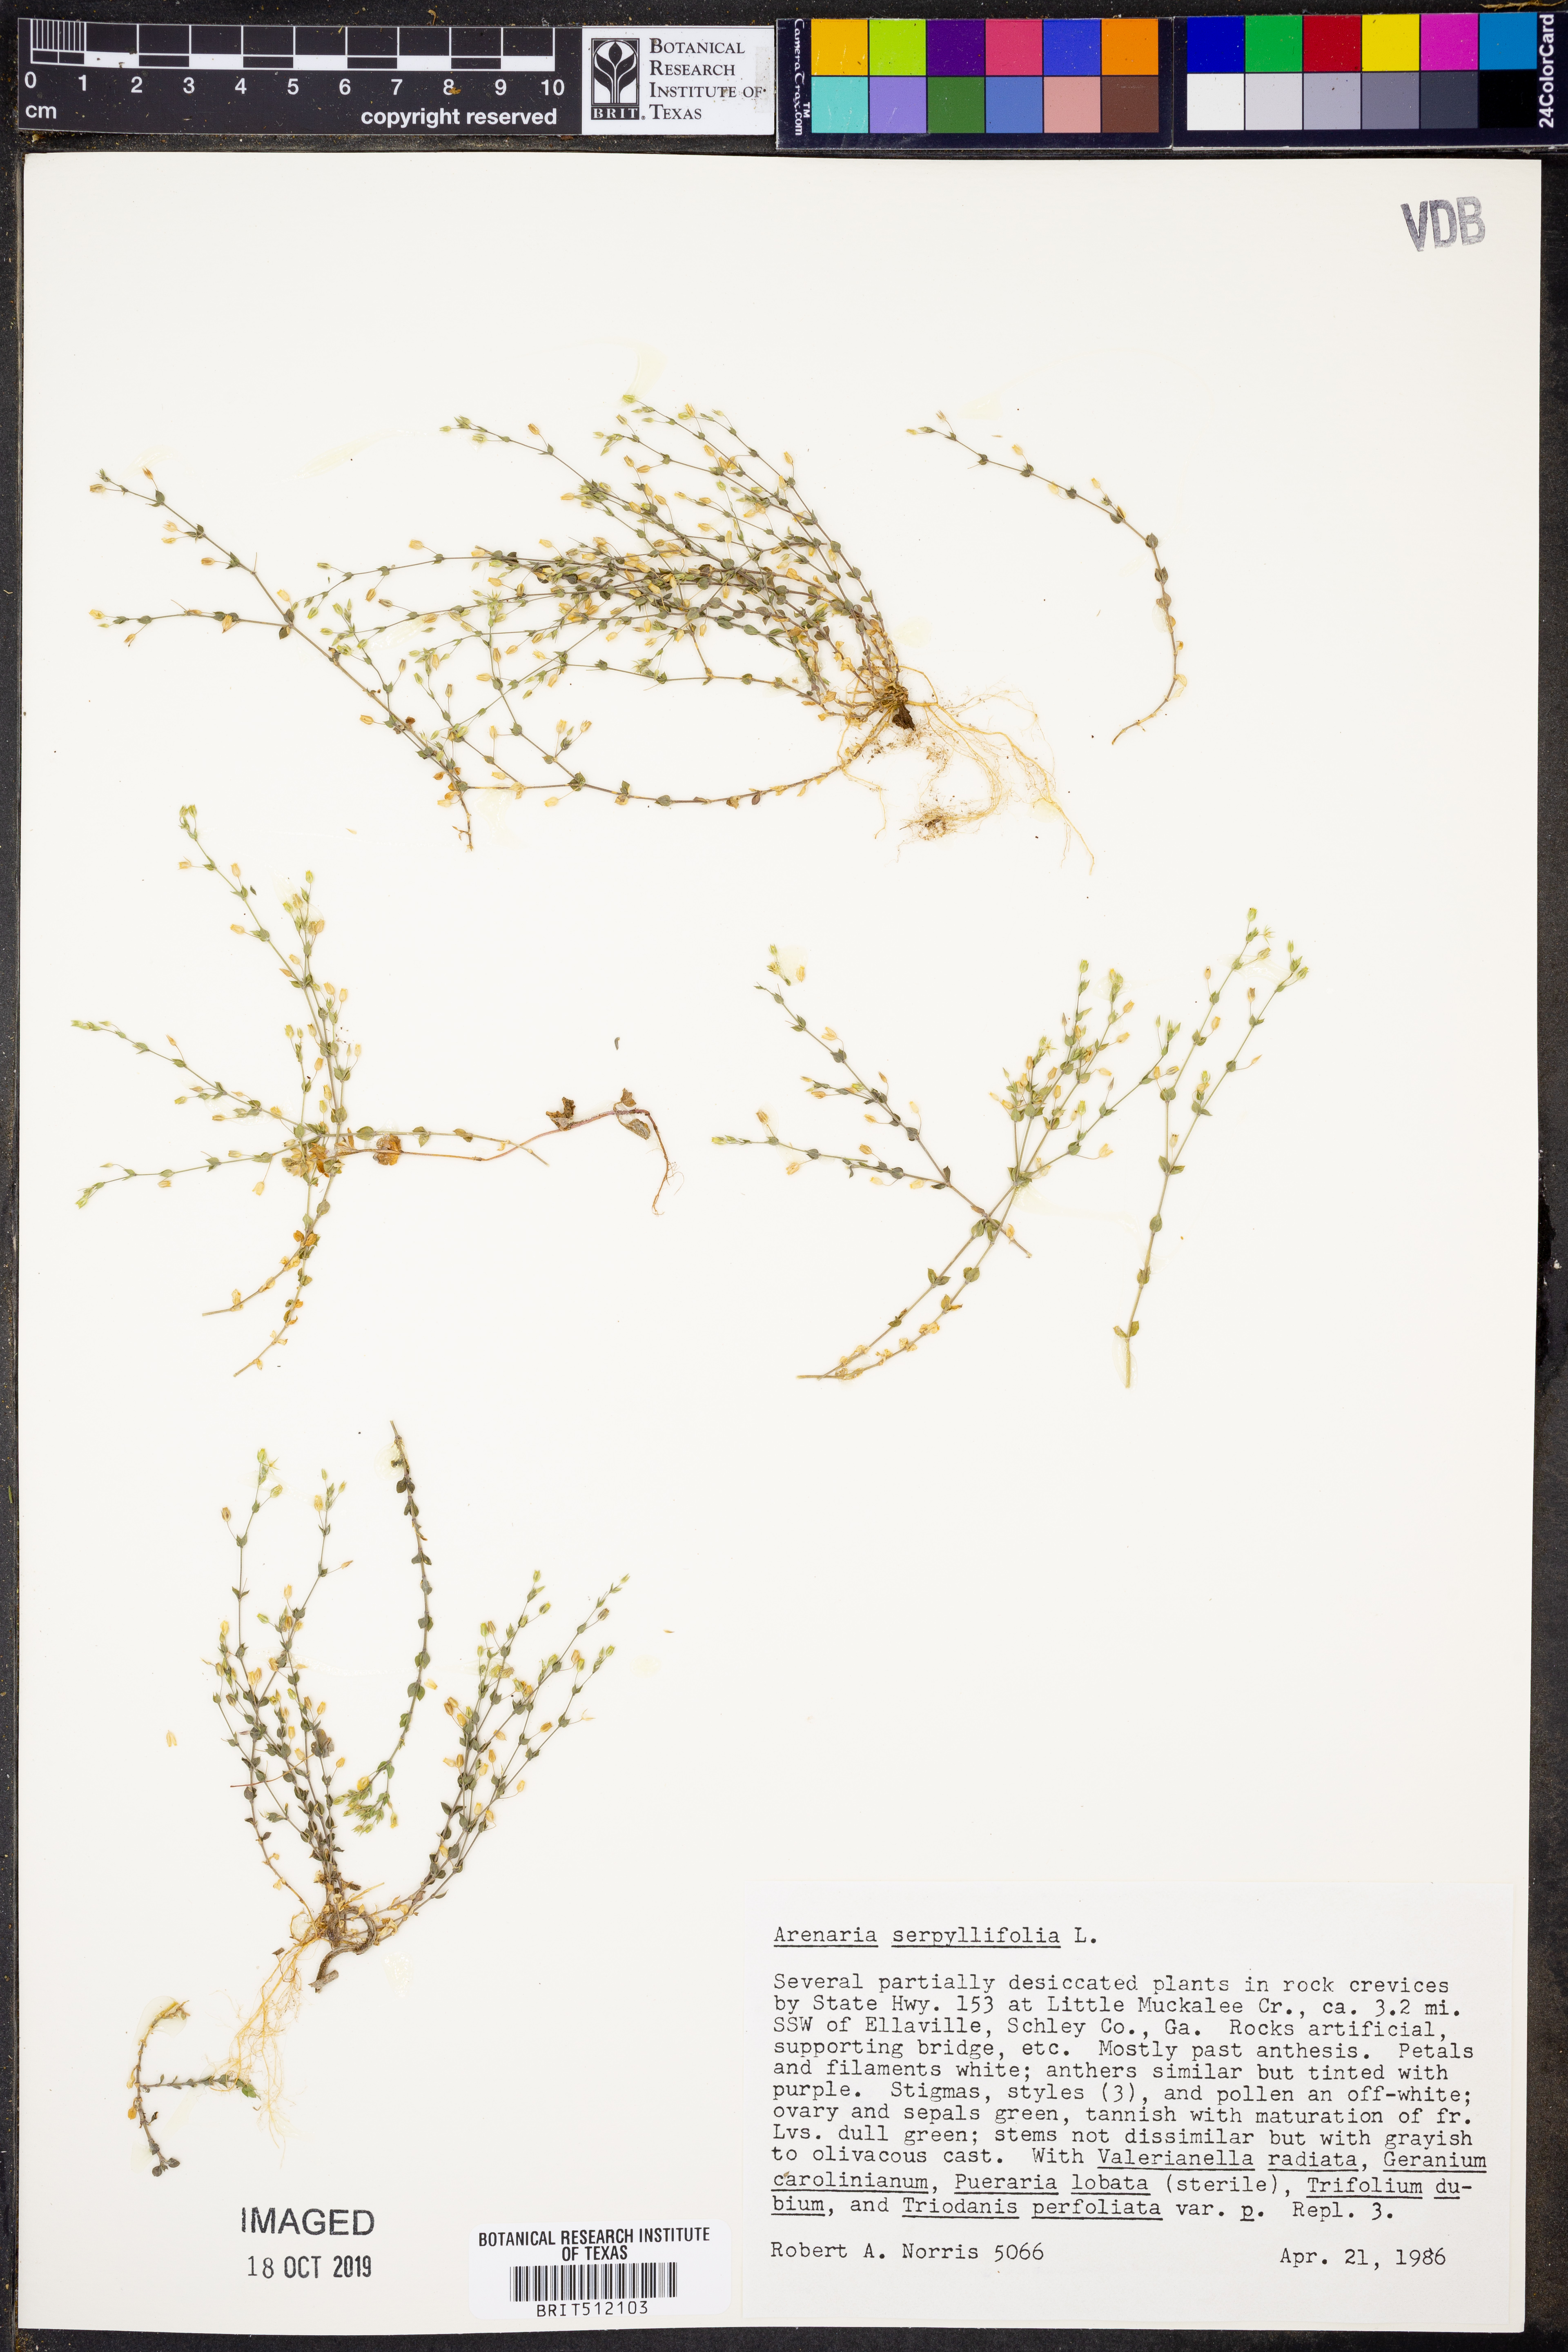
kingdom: Plantae
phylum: Tracheophyta
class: Magnoliopsida
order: Caryophyllales
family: Caryophyllaceae
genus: Arenaria
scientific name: Arenaria serpyllifolia
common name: Thyme-leaved sandwort
